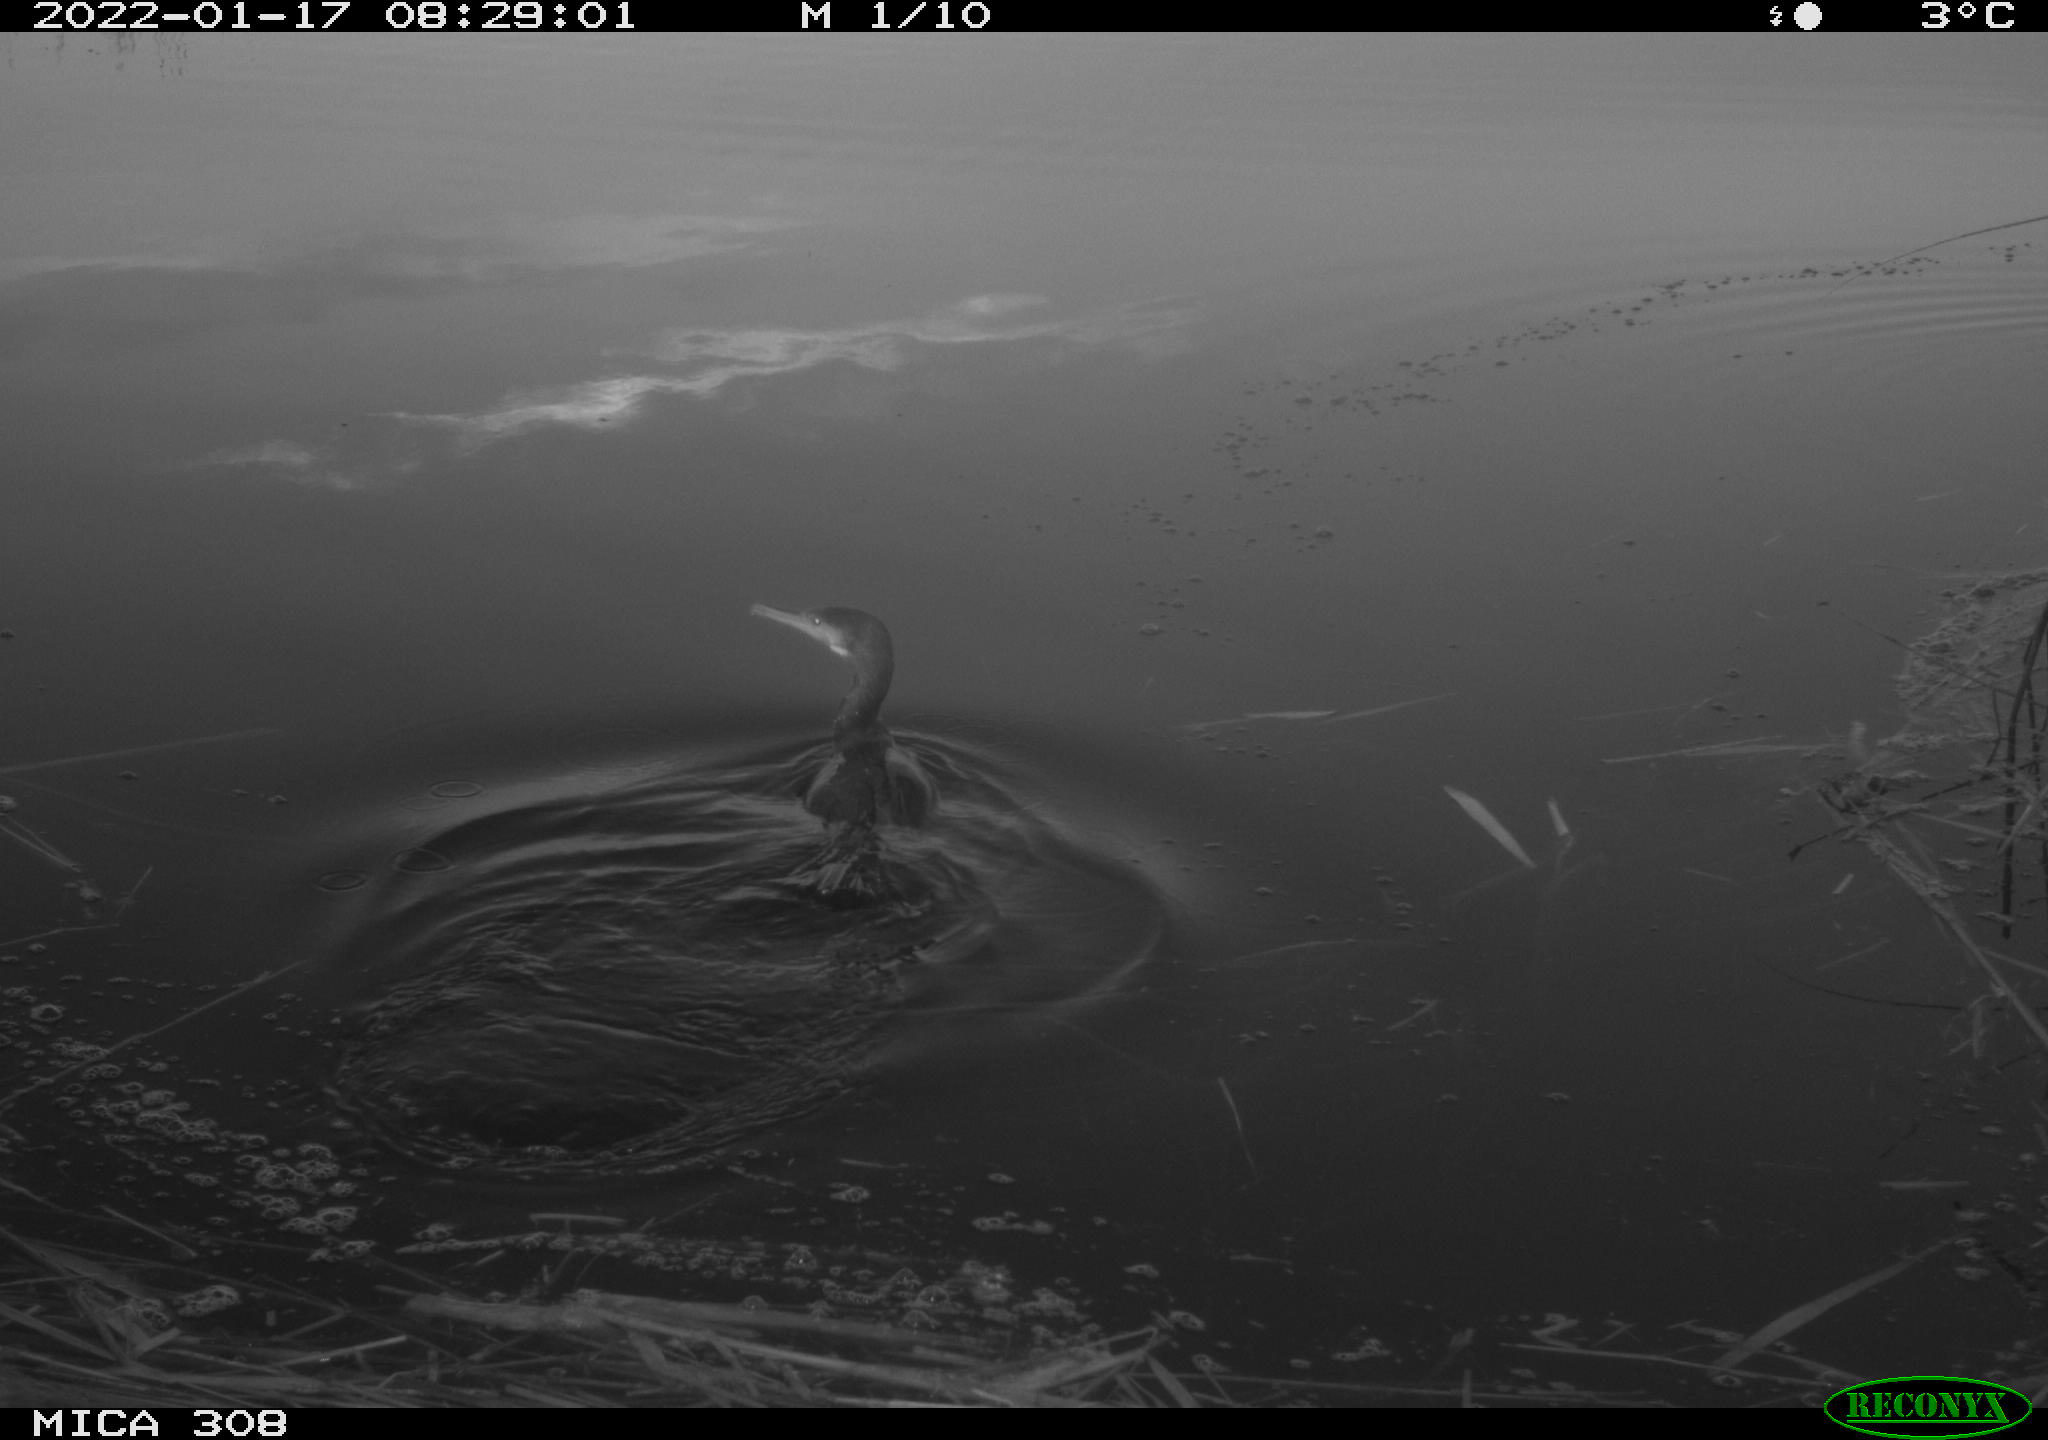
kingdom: Animalia
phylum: Chordata
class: Aves
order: Suliformes
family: Phalacrocoracidae
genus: Phalacrocorax
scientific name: Phalacrocorax carbo
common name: Great cormorant
